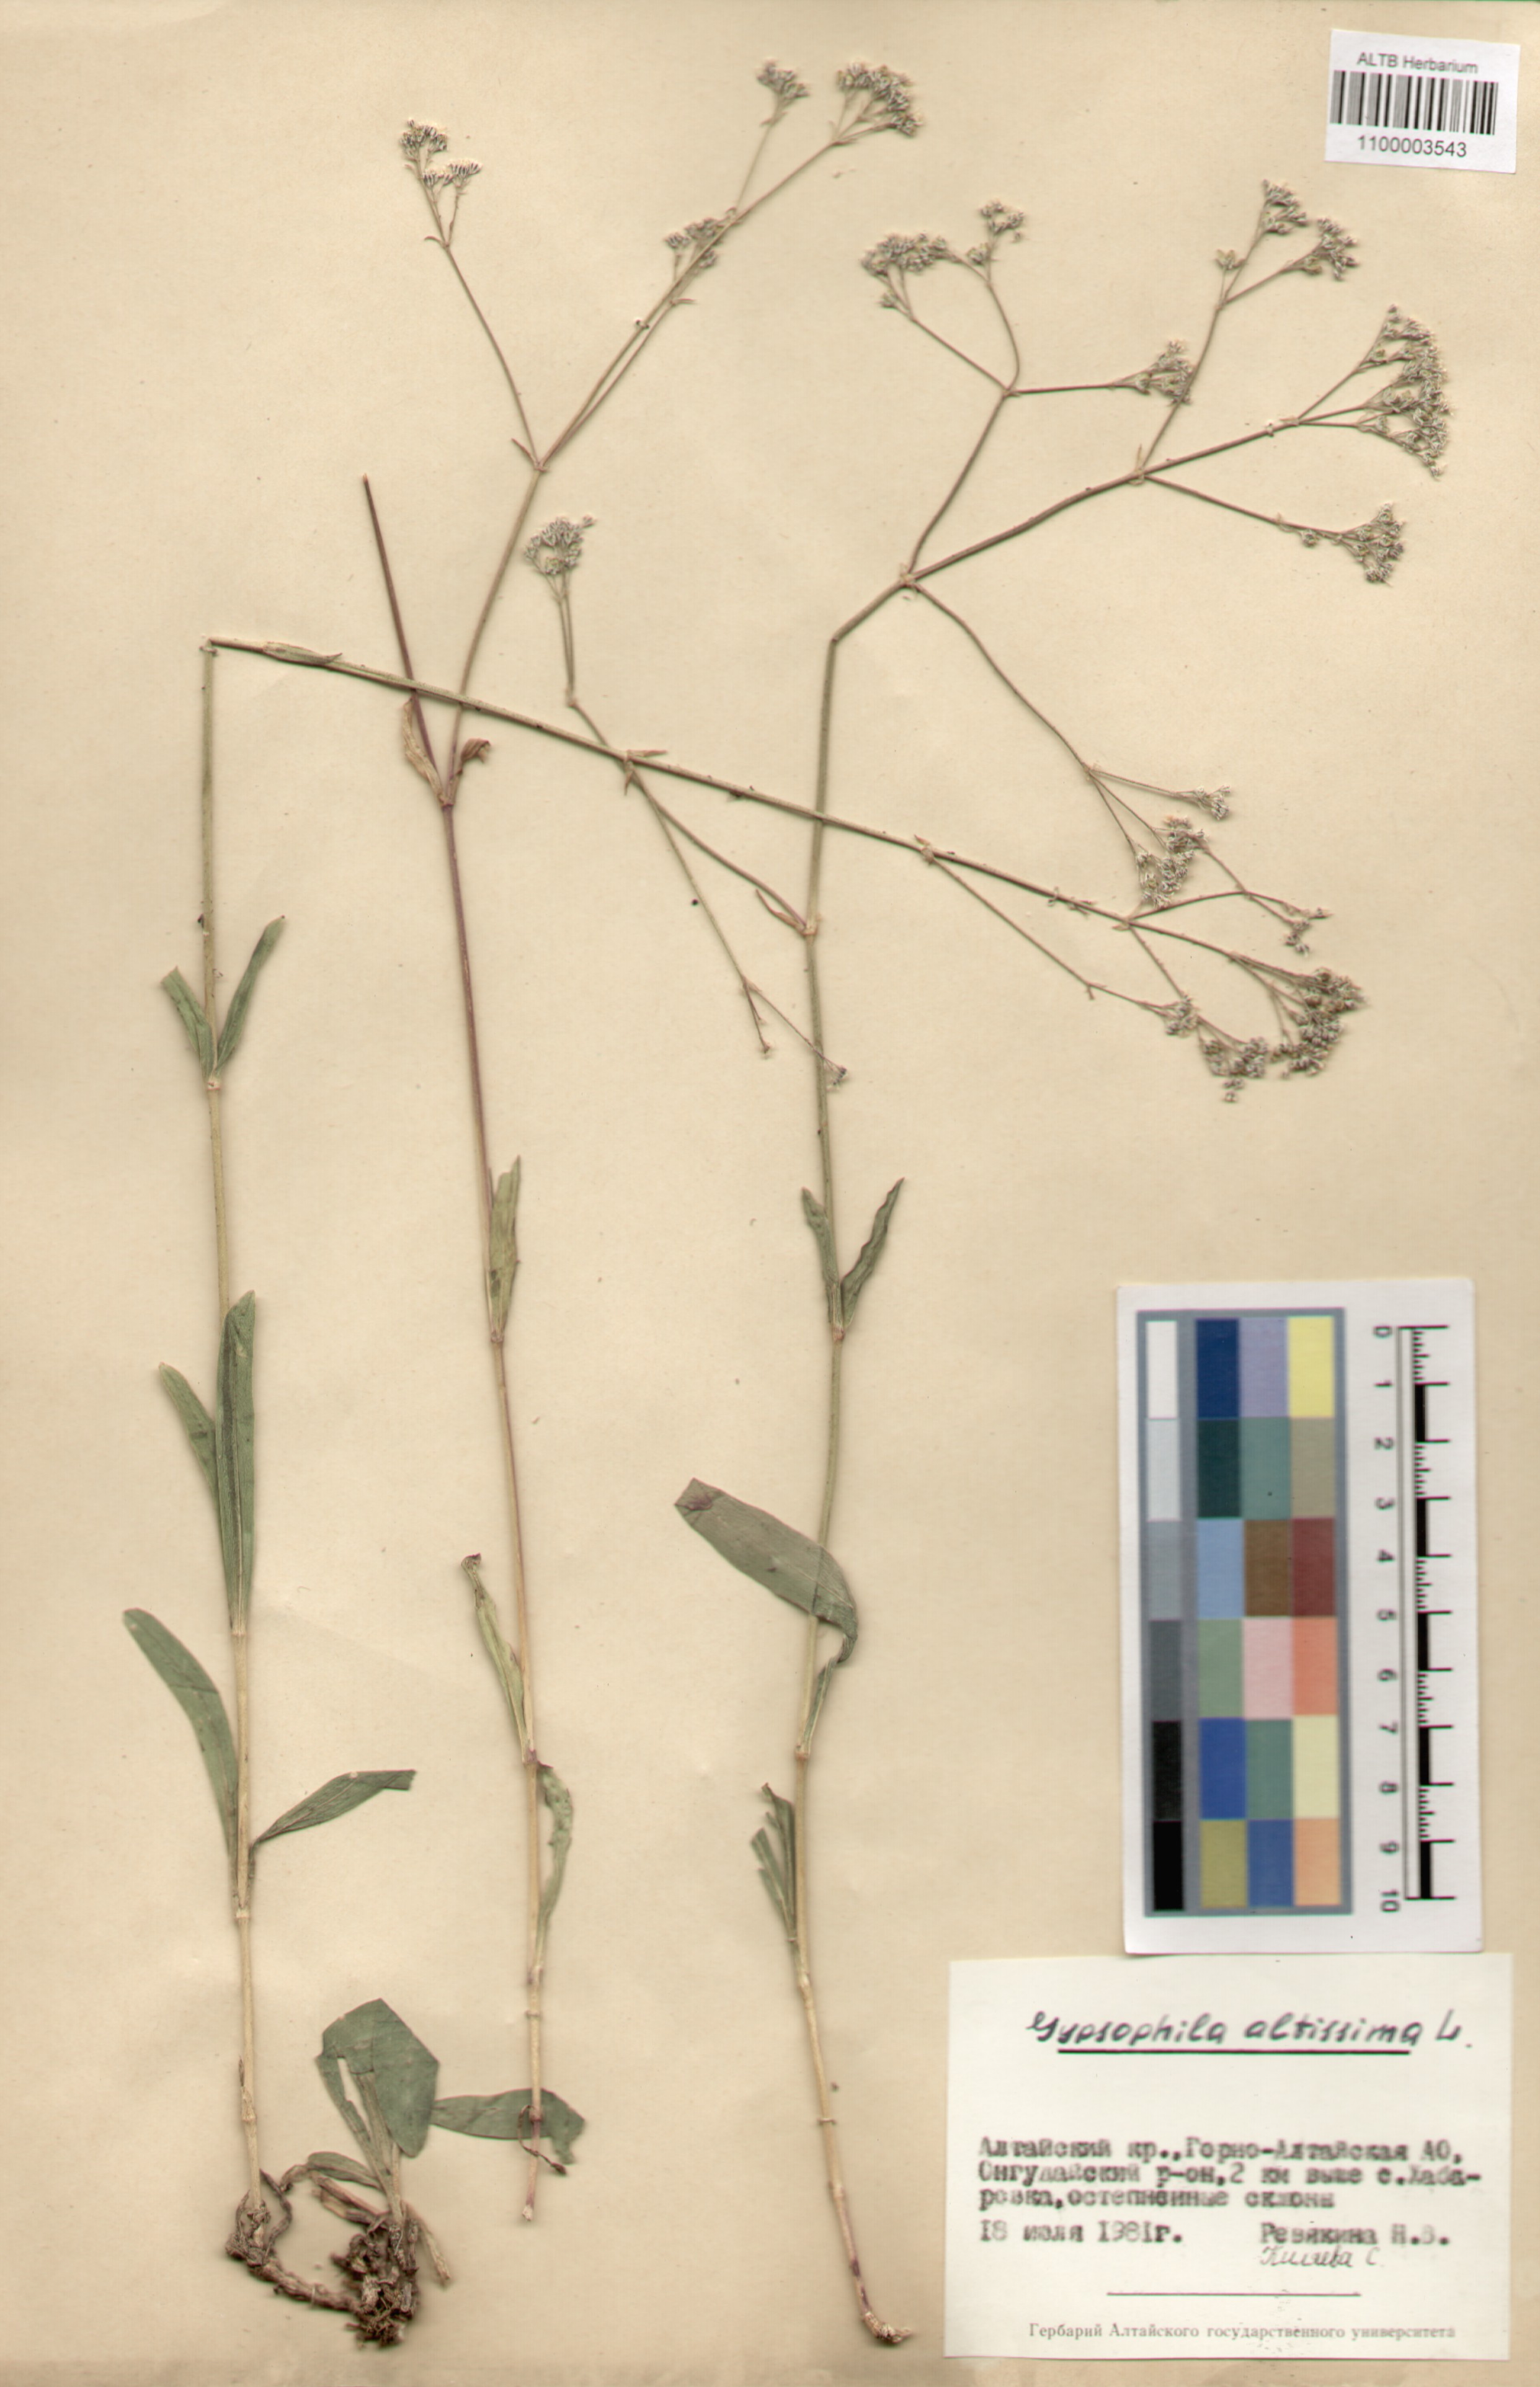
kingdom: Plantae
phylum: Tracheophyta
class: Magnoliopsida
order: Caryophyllales
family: Caryophyllaceae
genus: Gypsophila
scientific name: Gypsophila altissima
